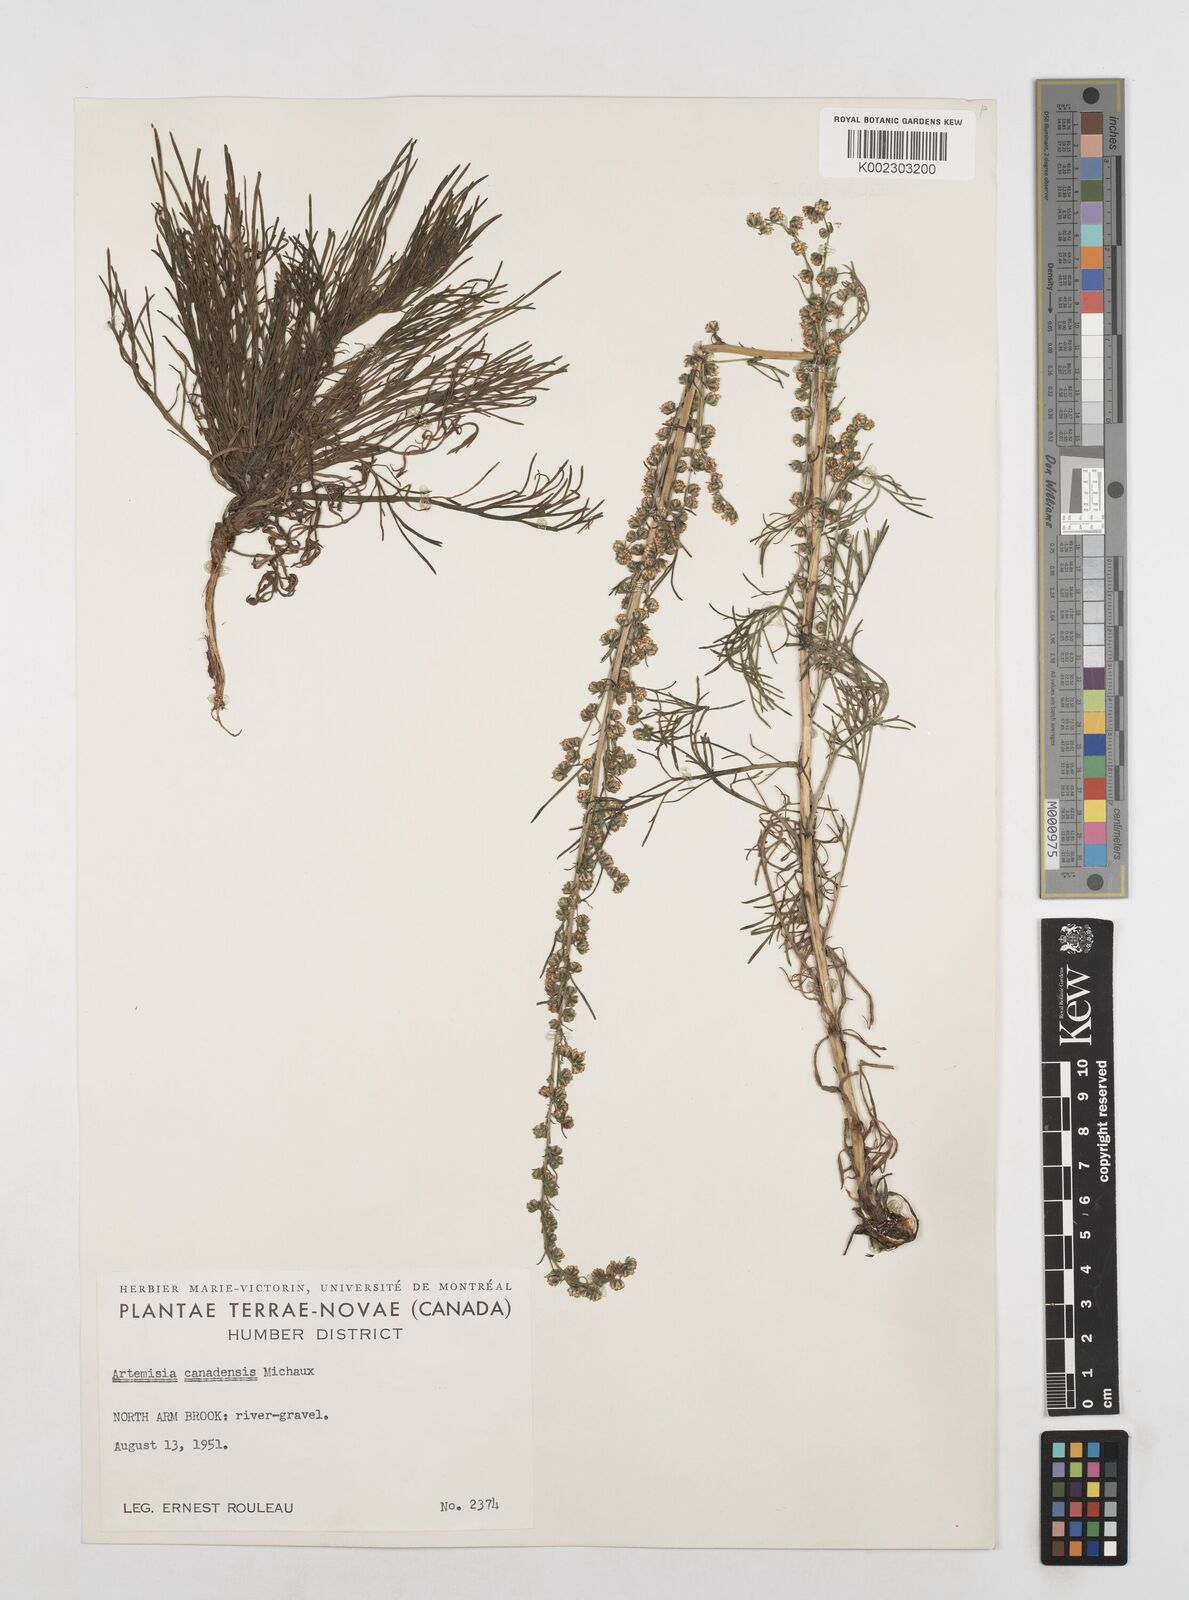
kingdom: Plantae
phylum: Tracheophyta
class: Magnoliopsida
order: Asterales
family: Asteraceae
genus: Artemisia
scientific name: Artemisia campestris
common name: Field wormwood
